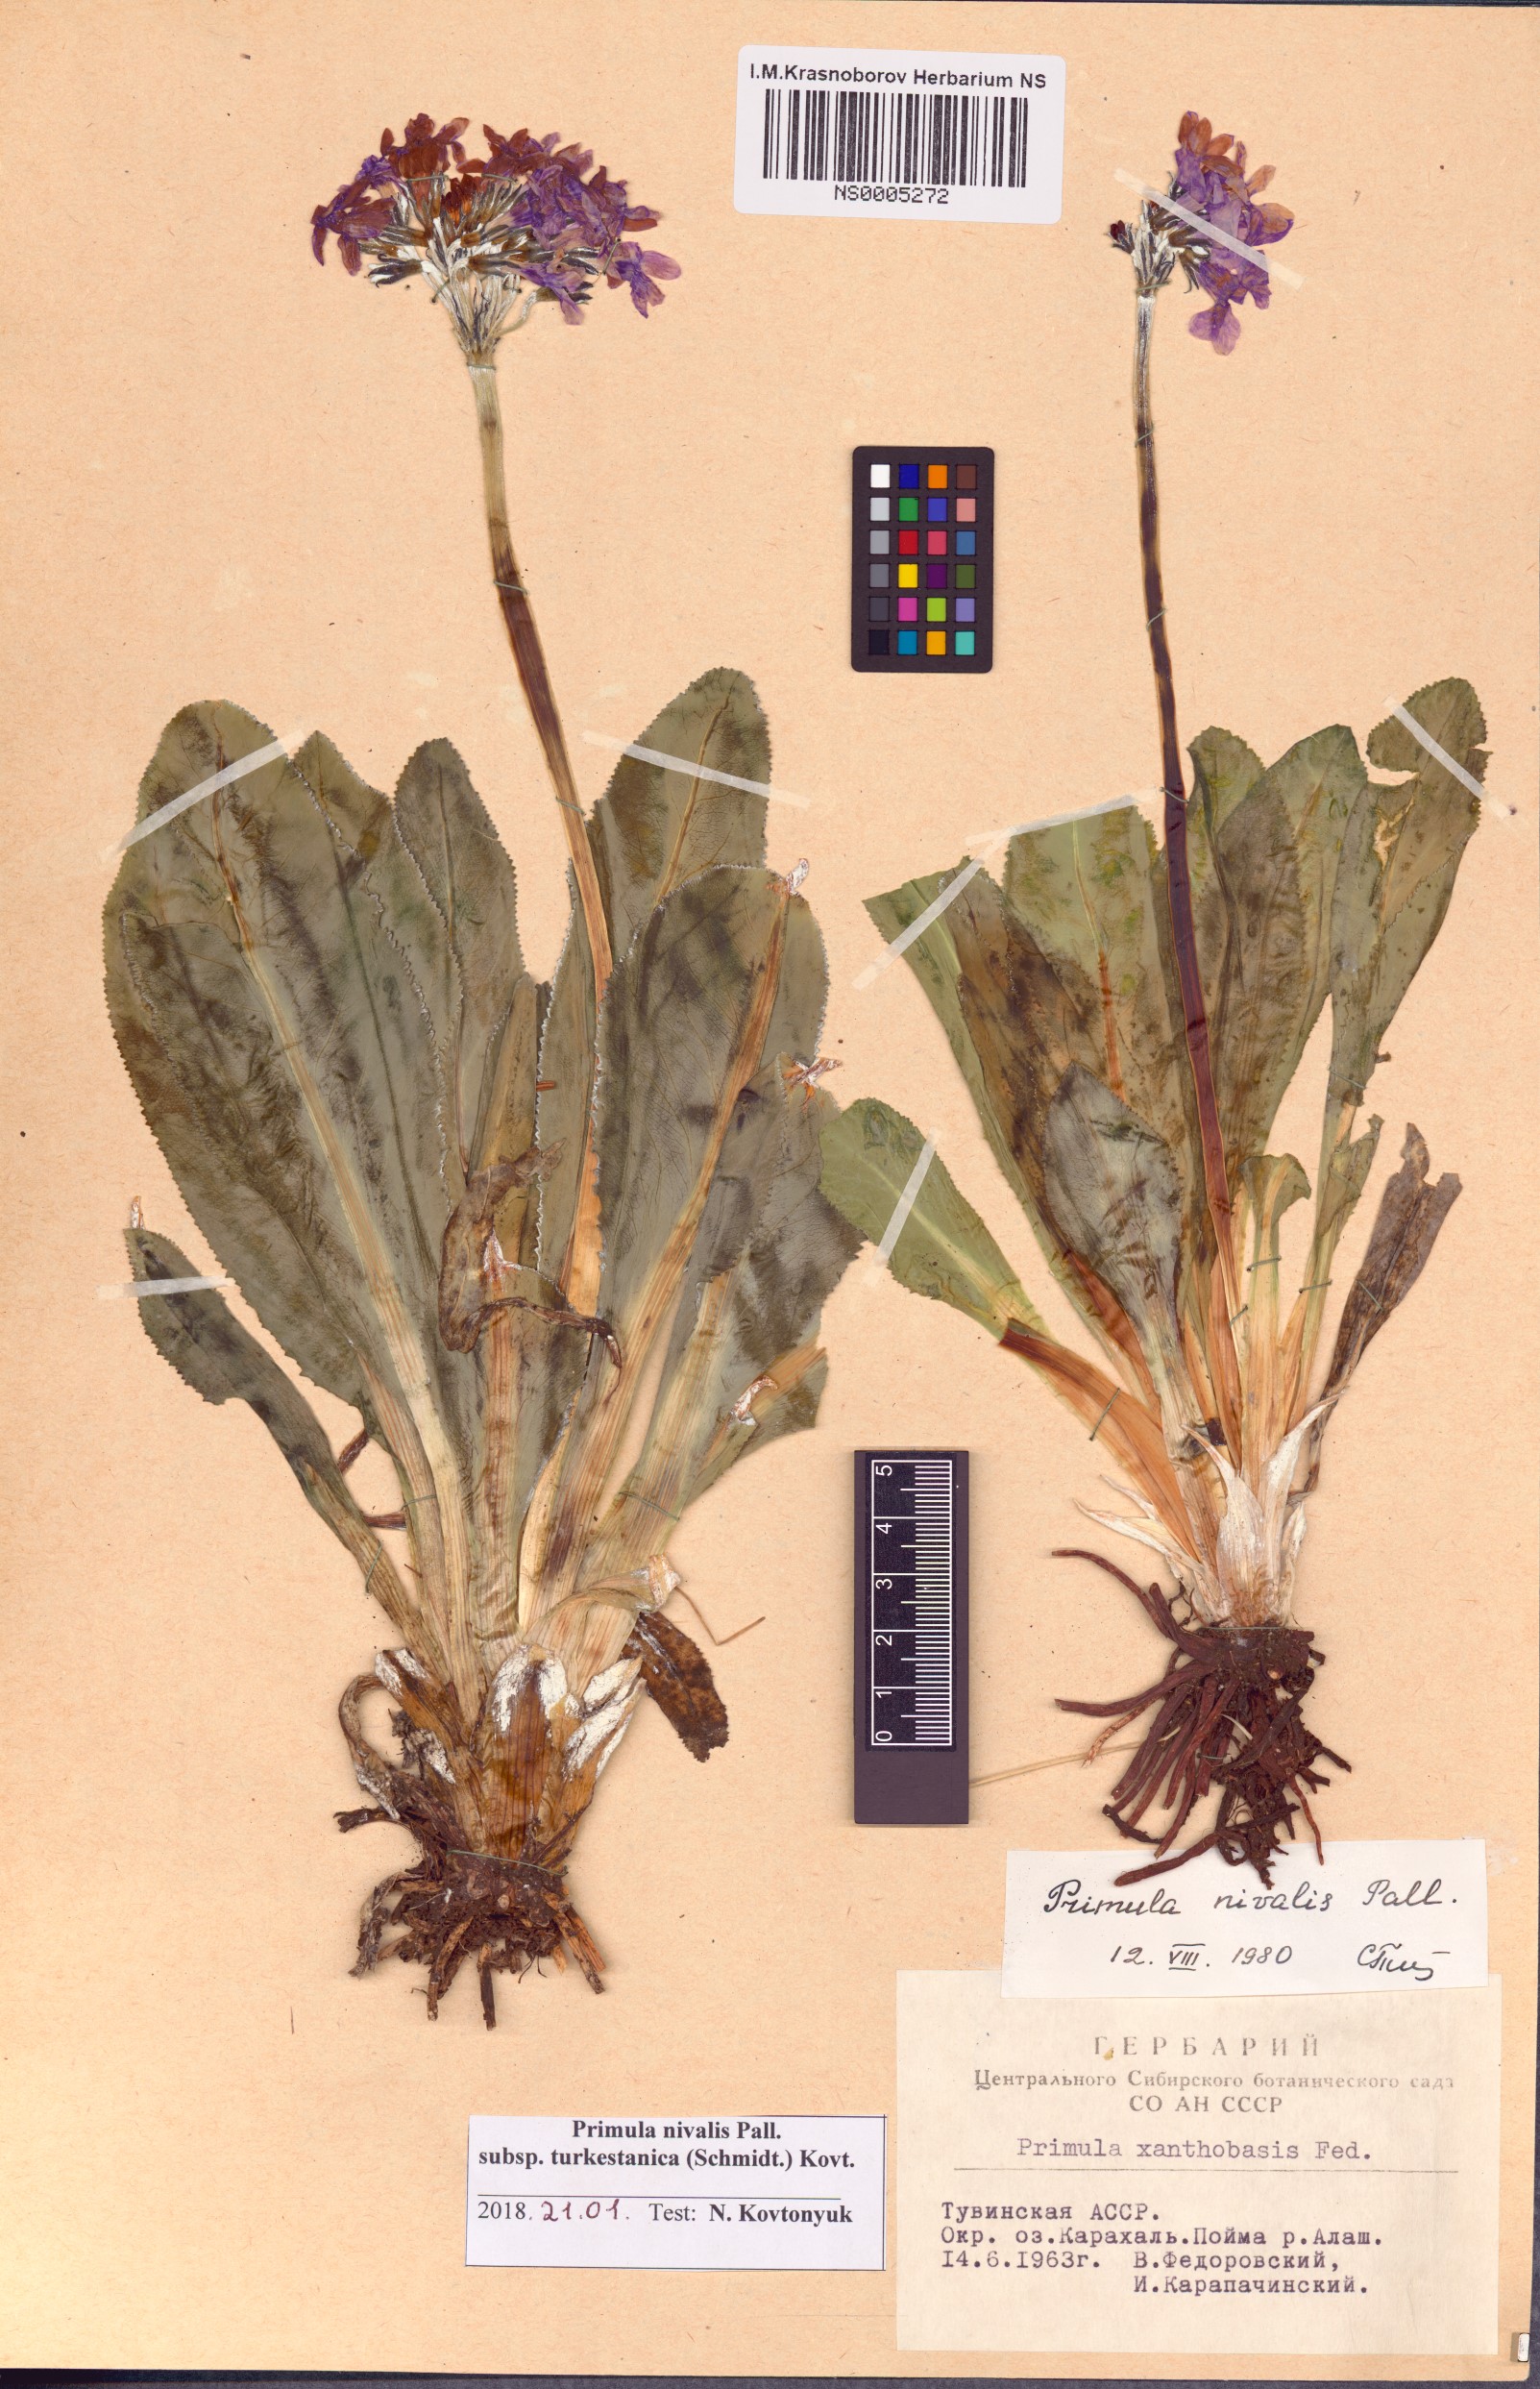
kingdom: Plantae
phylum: Tracheophyta
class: Magnoliopsida
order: Ericales
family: Primulaceae
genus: Primula
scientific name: Primula nivalis
